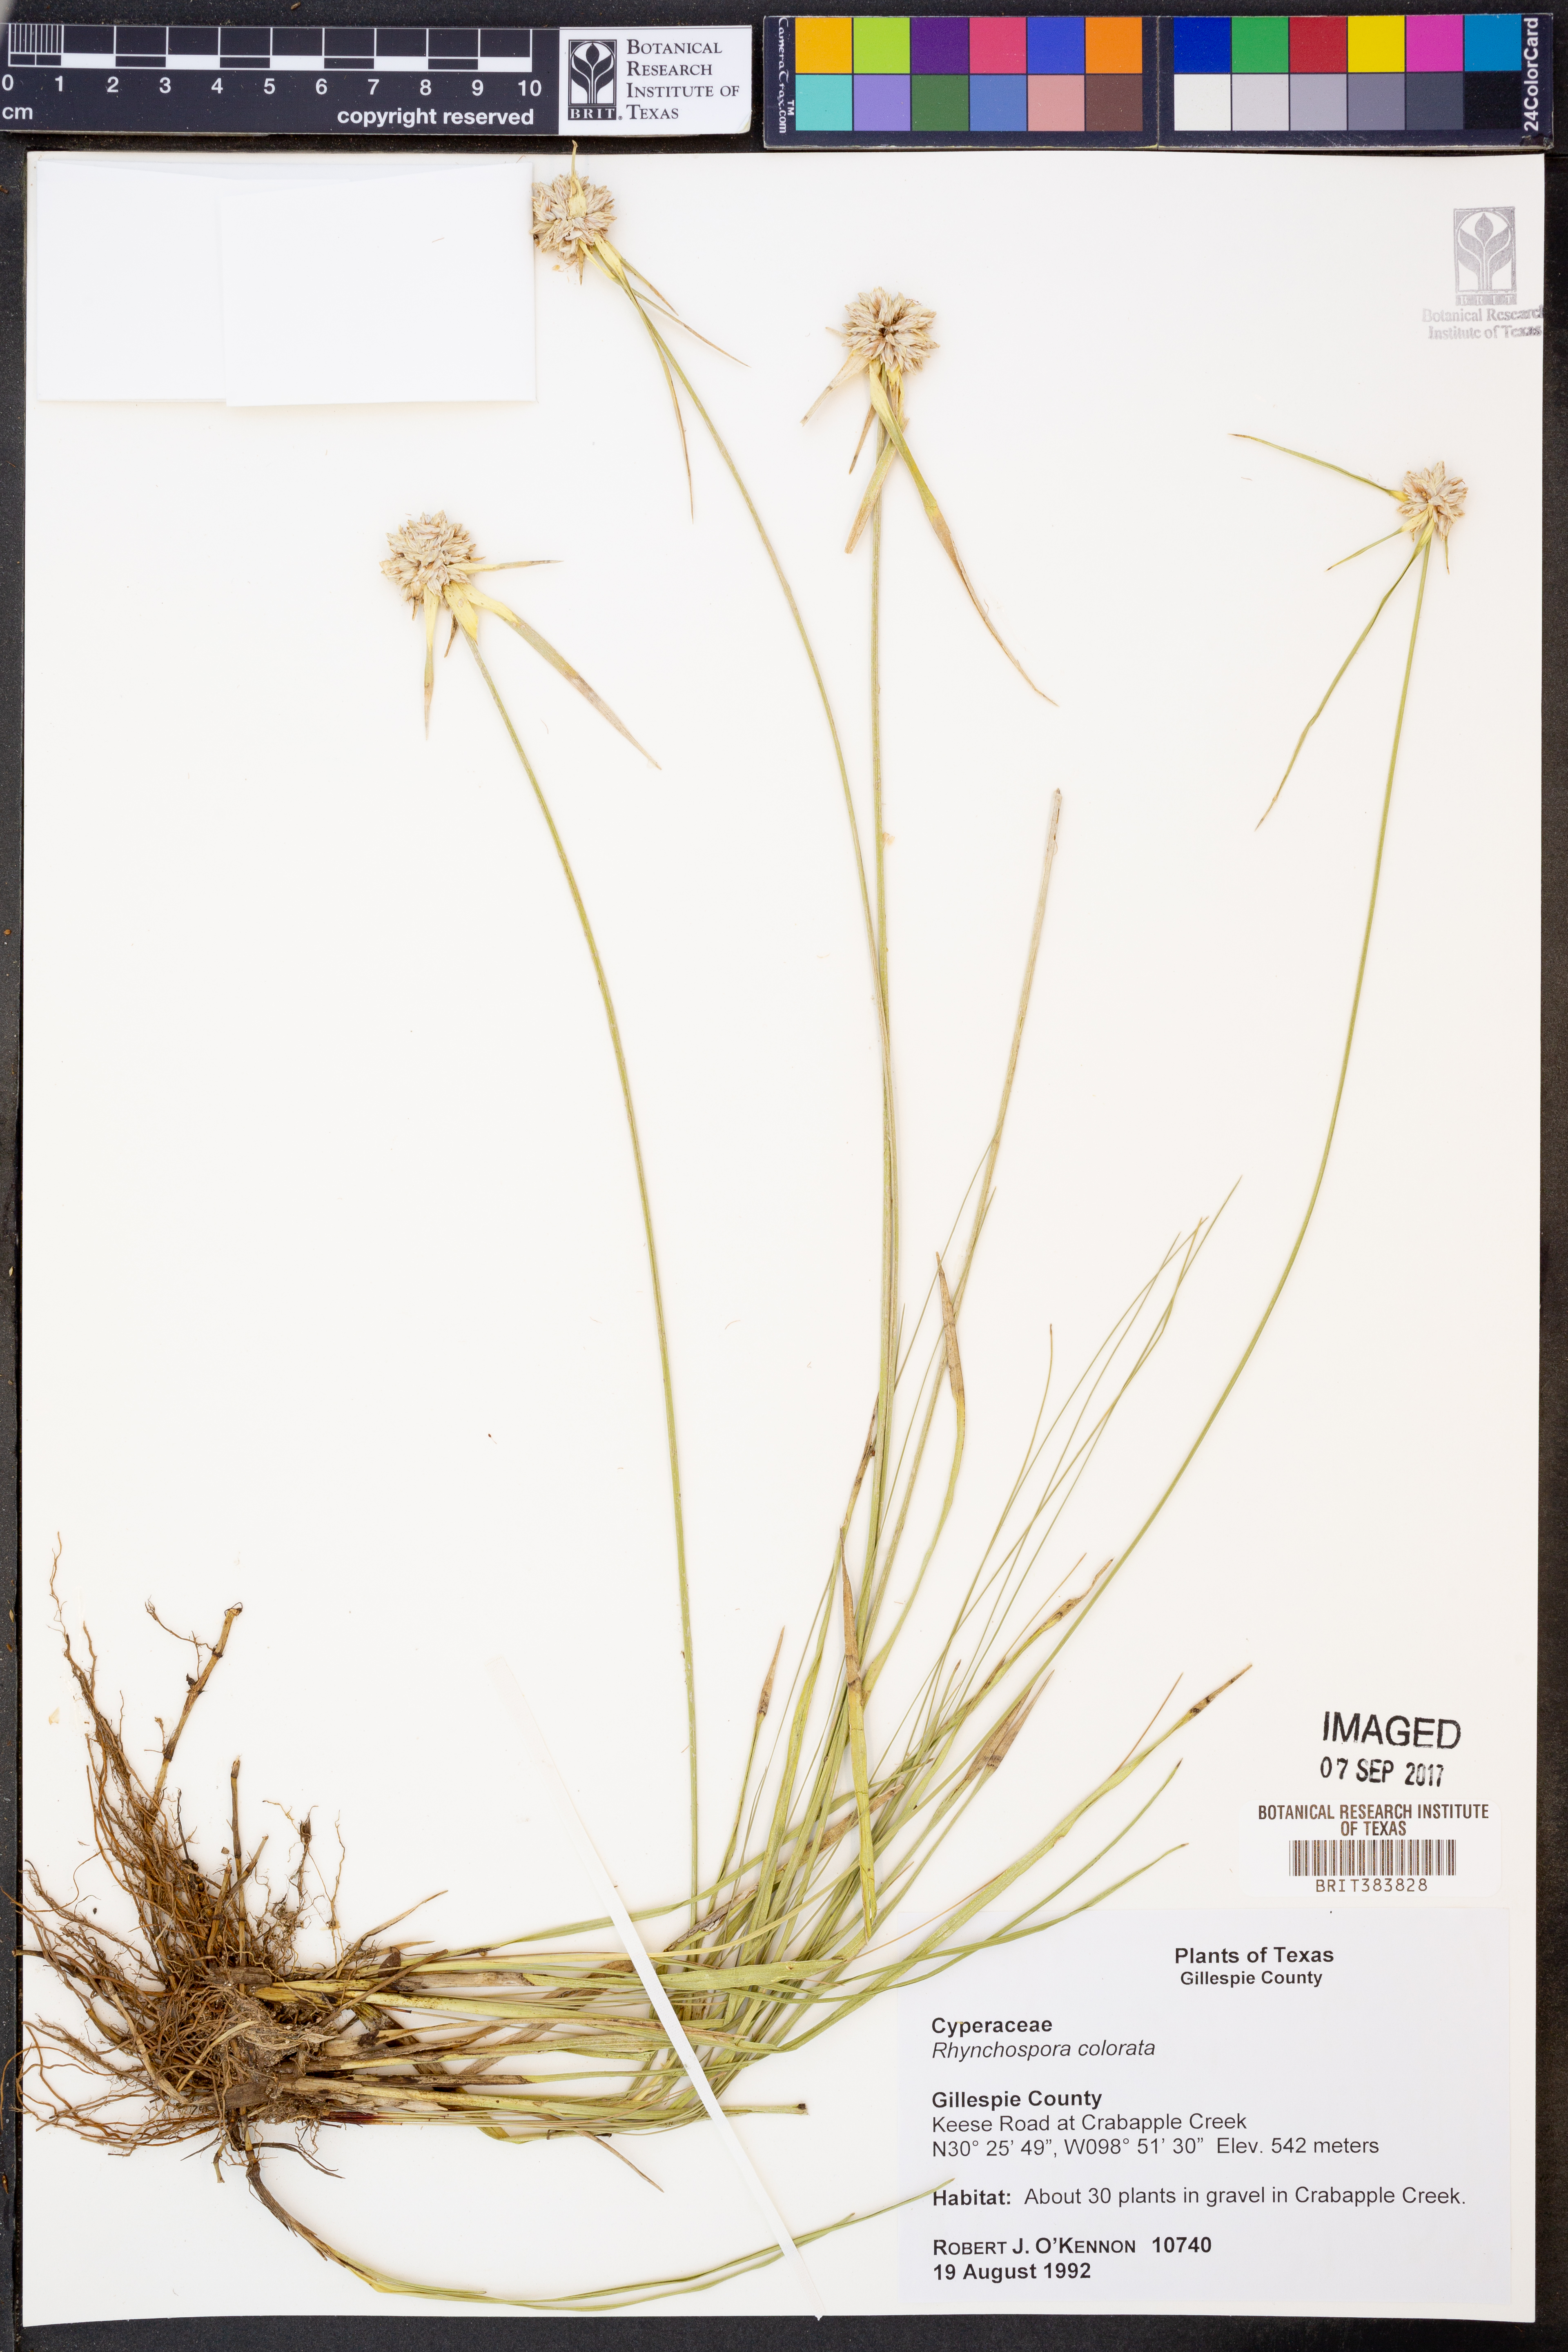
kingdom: Plantae
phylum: Tracheophyta
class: Liliopsida
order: Poales
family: Cyperaceae
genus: Rhynchospora
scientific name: Rhynchospora colorata
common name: Star sedge
